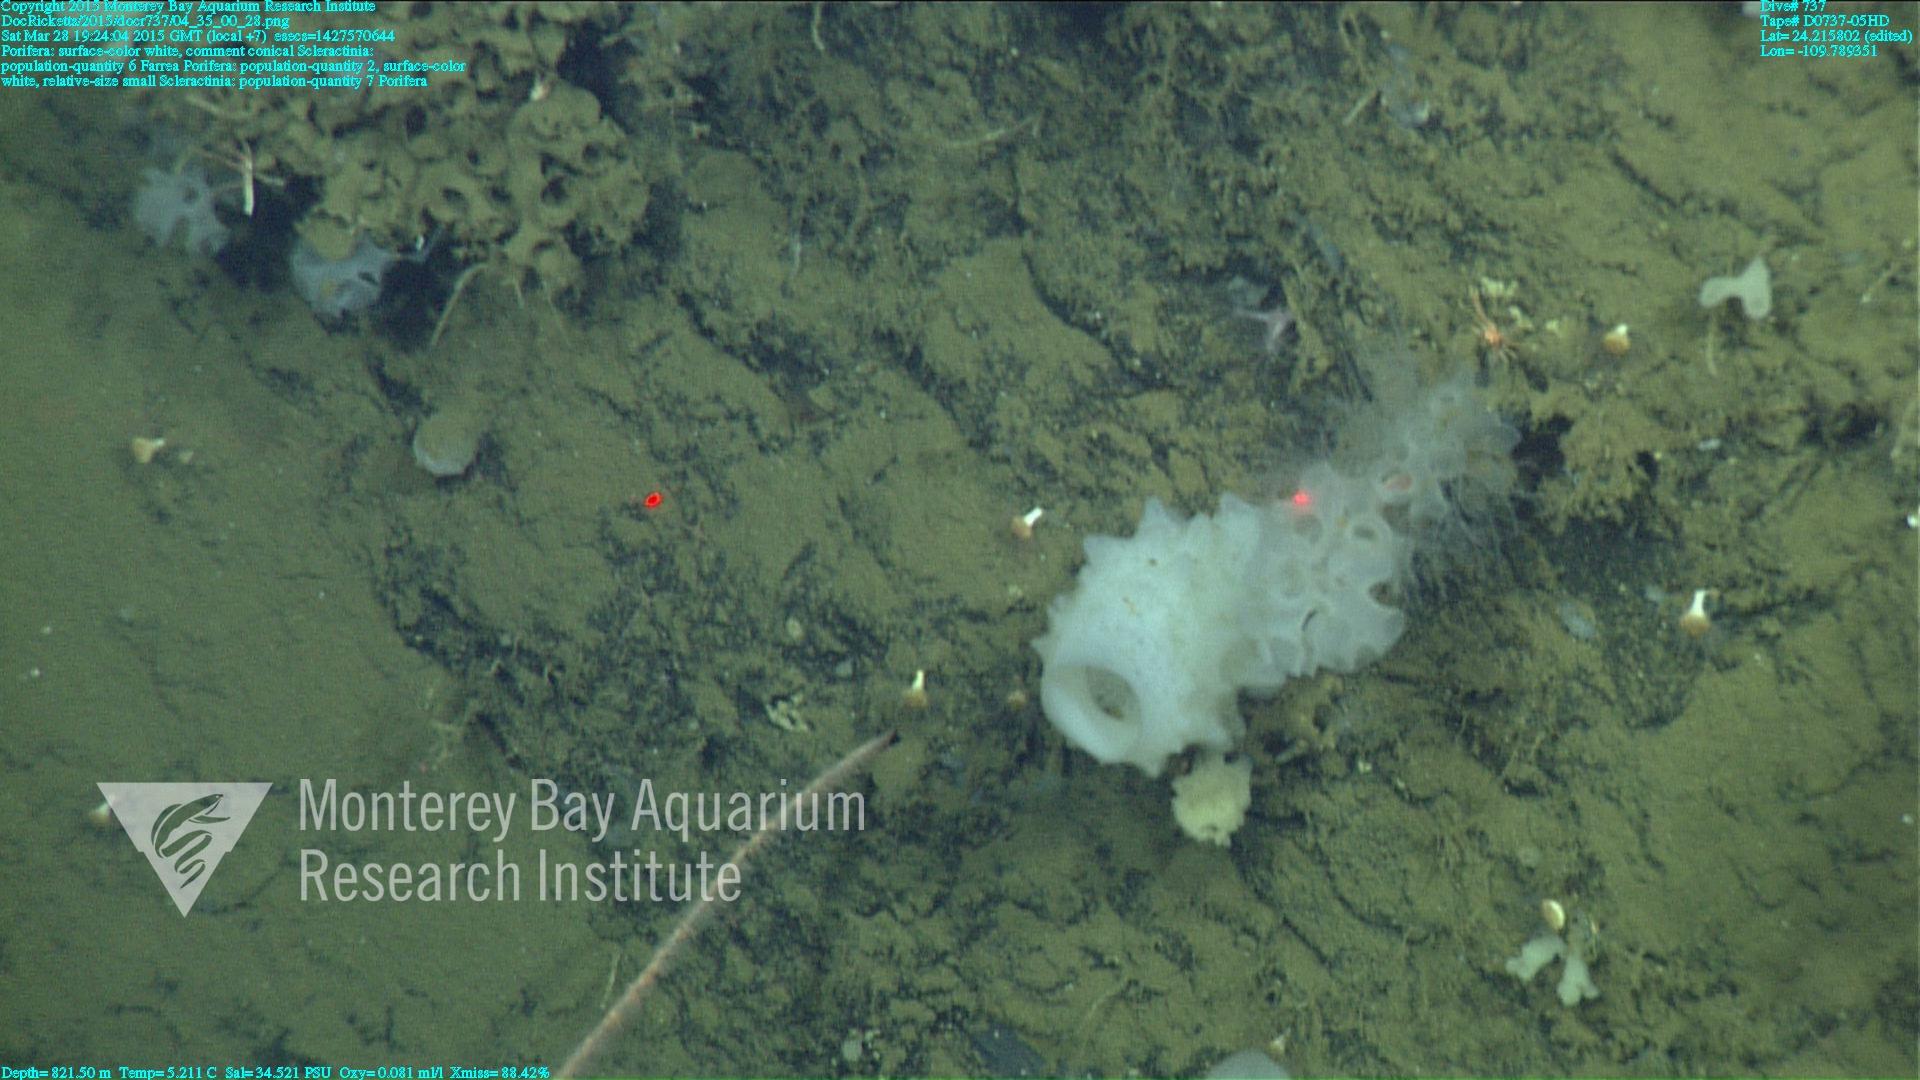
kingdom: Animalia
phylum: Cnidaria
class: Anthozoa
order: Scleractinia
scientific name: Scleractinia
